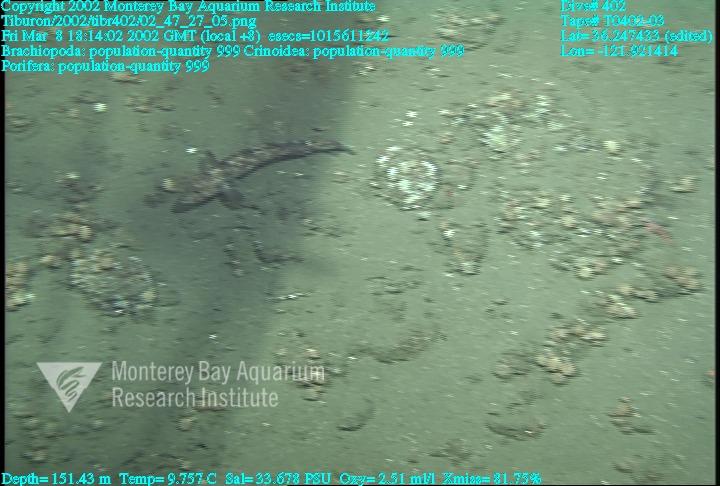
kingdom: Animalia
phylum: Porifera
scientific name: Porifera
